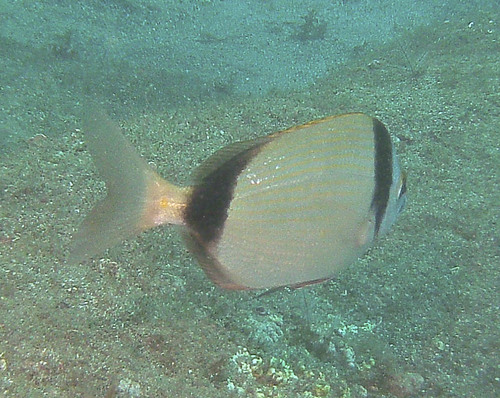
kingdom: Animalia
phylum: Chordata
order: Perciformes
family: Sparidae
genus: Diplodus
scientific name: Diplodus vulgaris
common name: Common two-banded seabream
